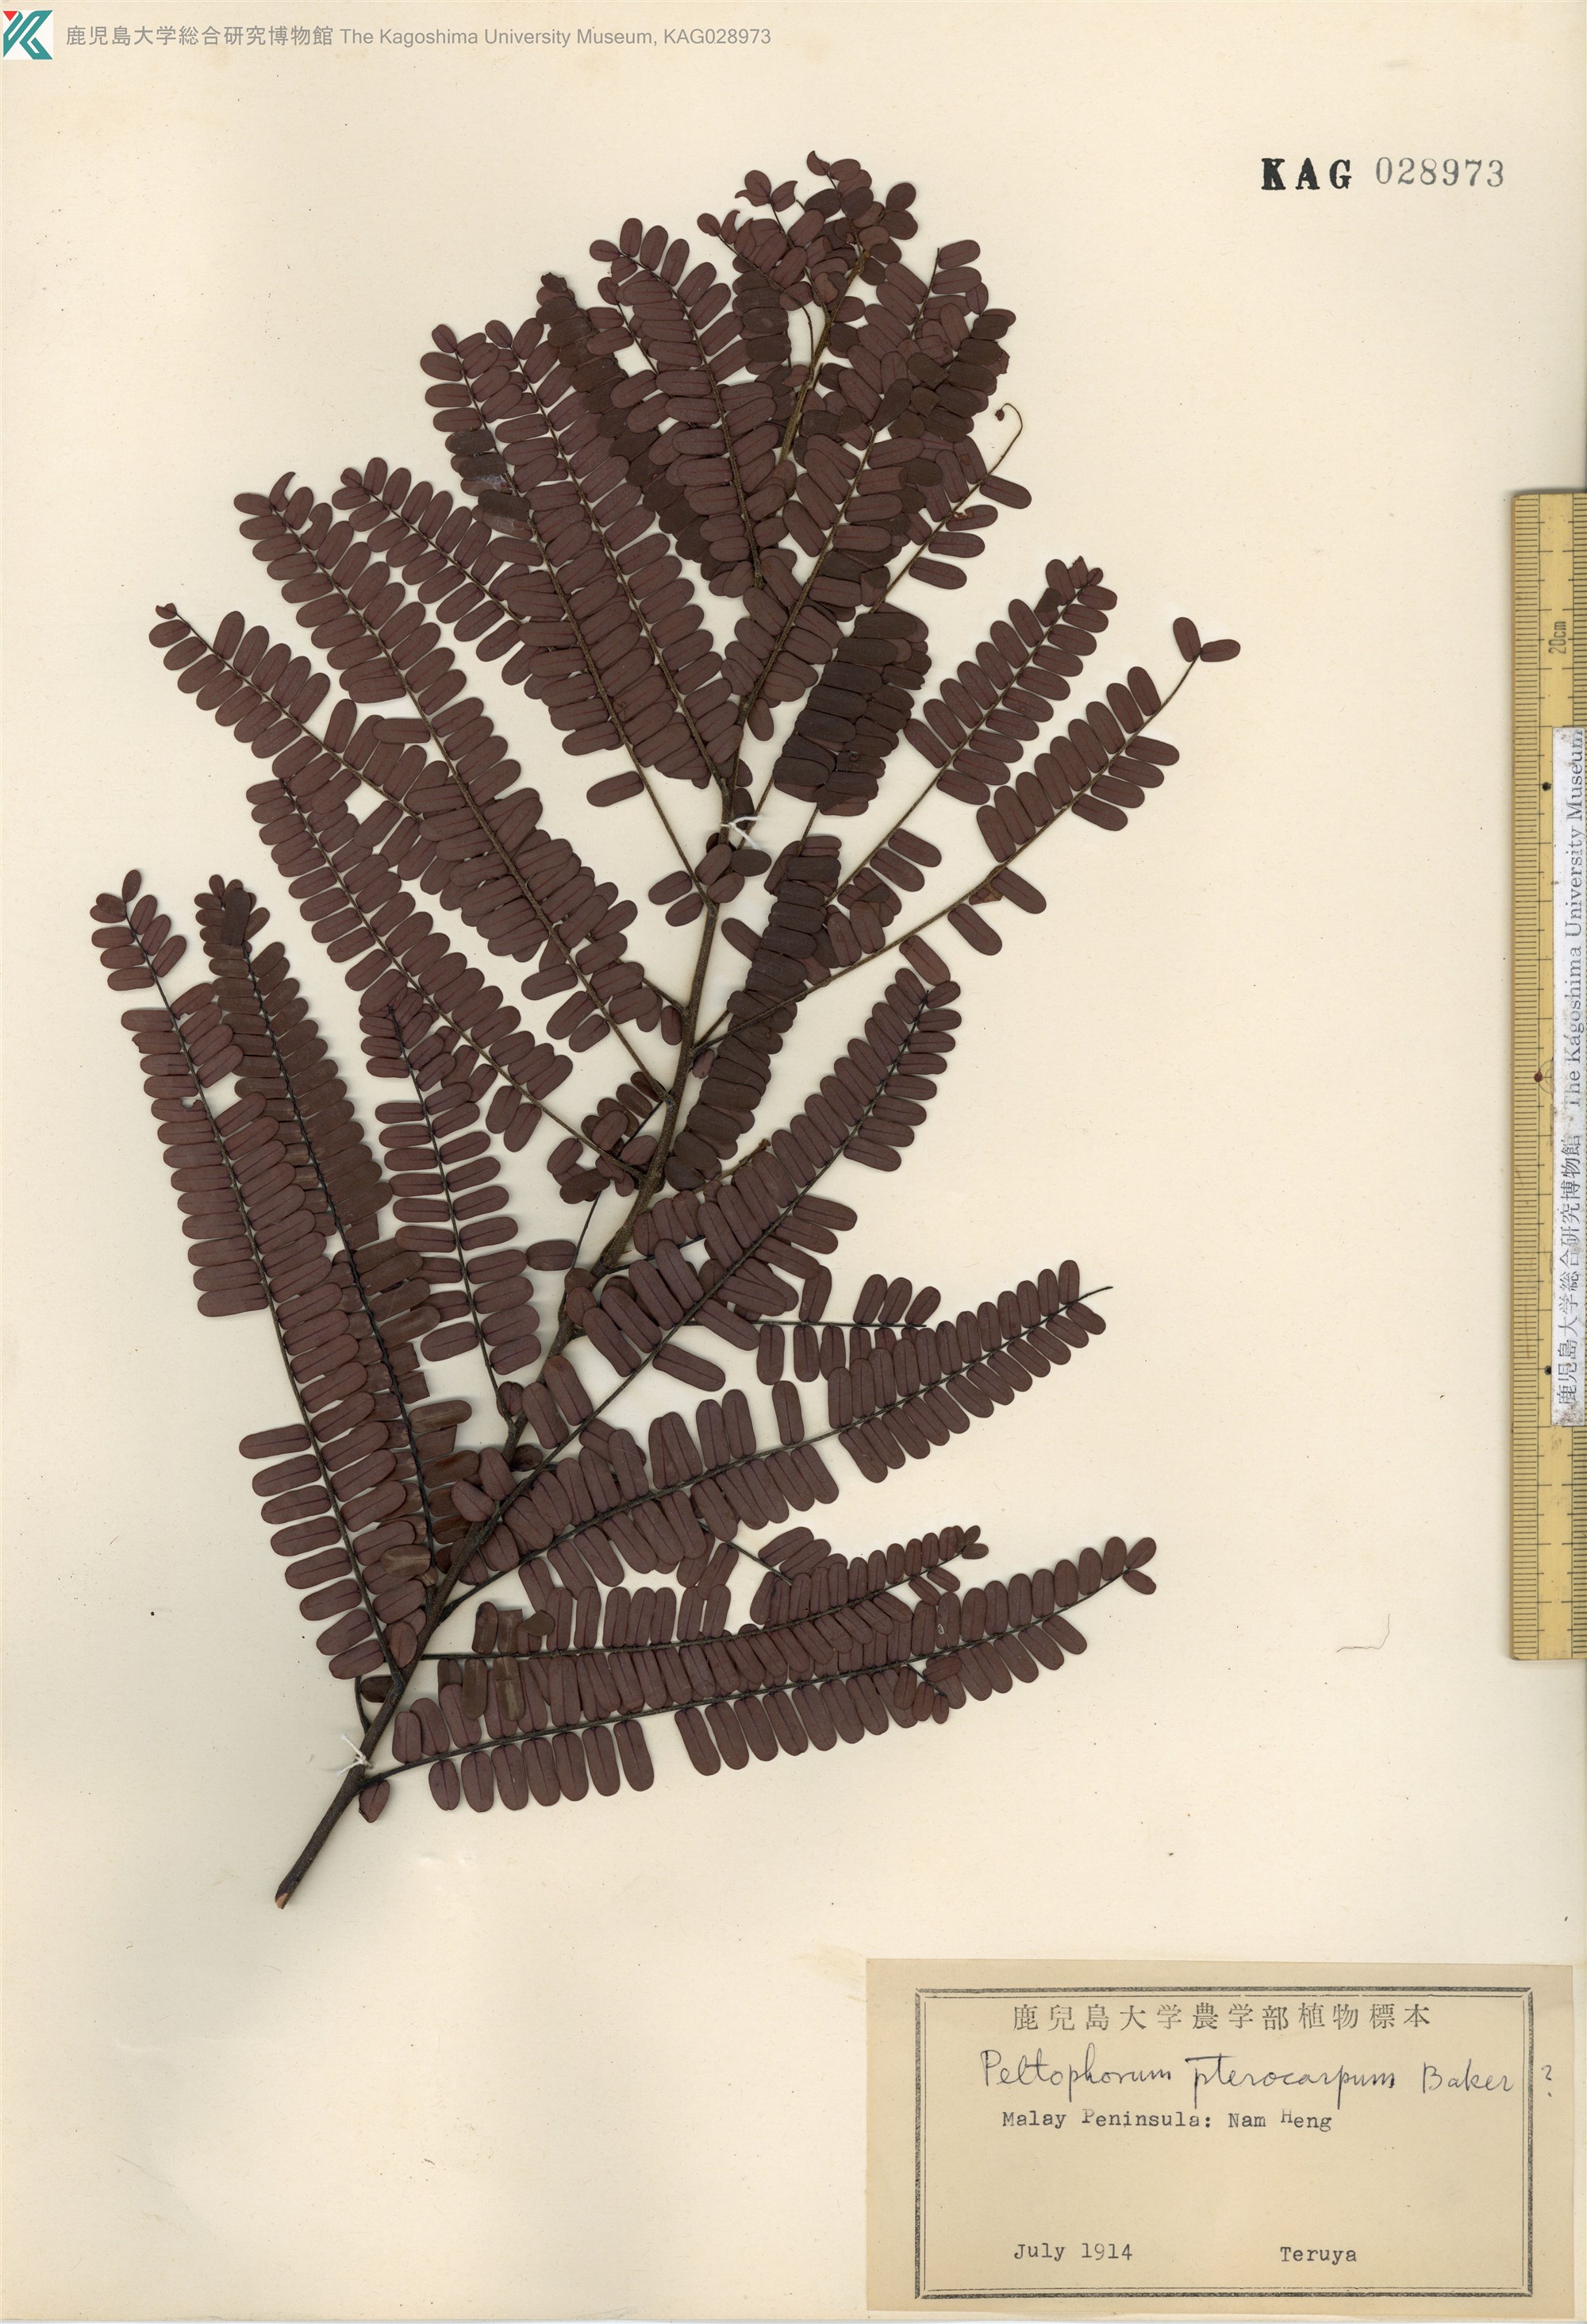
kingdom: Plantae
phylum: Tracheophyta
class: Magnoliopsida
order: Fabales
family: Fabaceae
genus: Parkia
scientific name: Parkia speciosa
